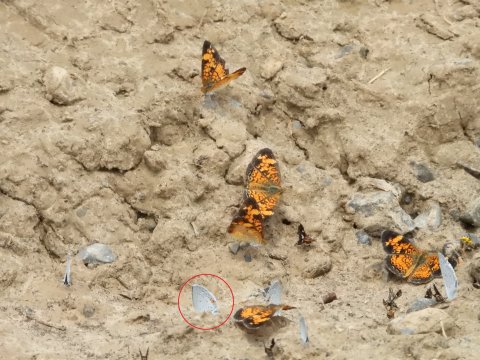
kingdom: Animalia
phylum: Arthropoda
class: Insecta
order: Lepidoptera
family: Lycaenidae
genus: Elkalyce
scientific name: Elkalyce comyntas
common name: Eastern Tailed-Blue
